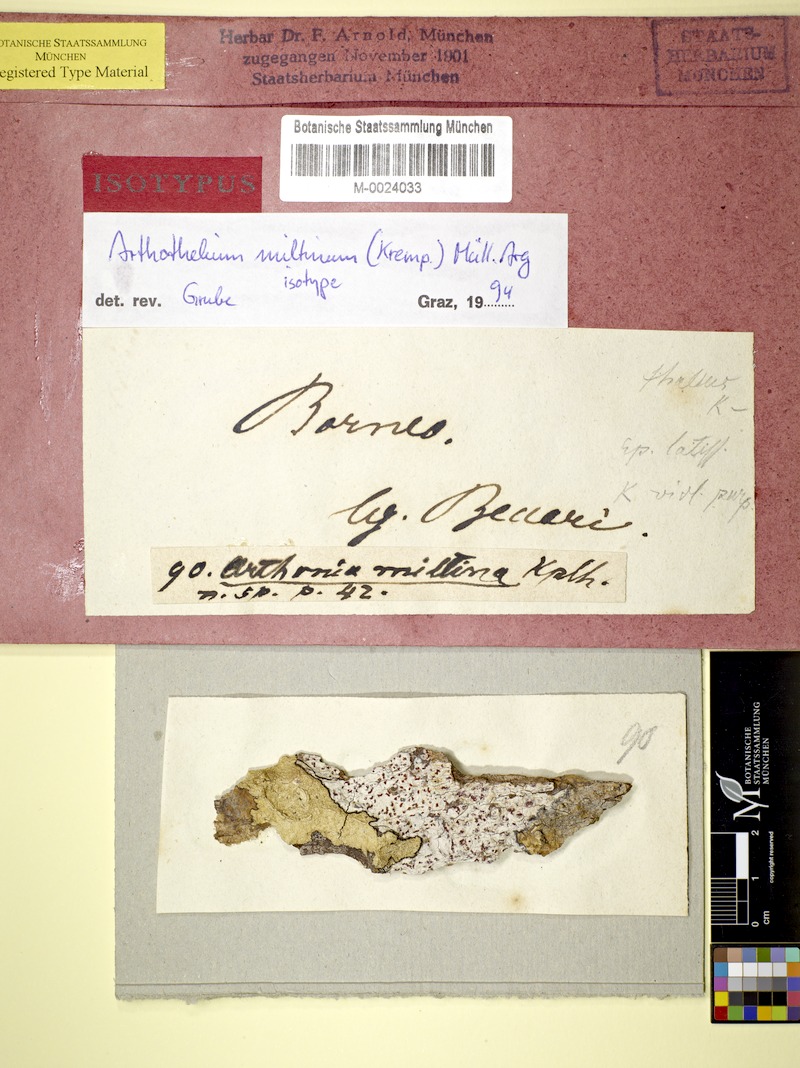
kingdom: Fungi
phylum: Ascomycota
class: Arthoniomycetes
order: Arthoniales
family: Arthoniaceae
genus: Arthothelium
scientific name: Arthothelium
